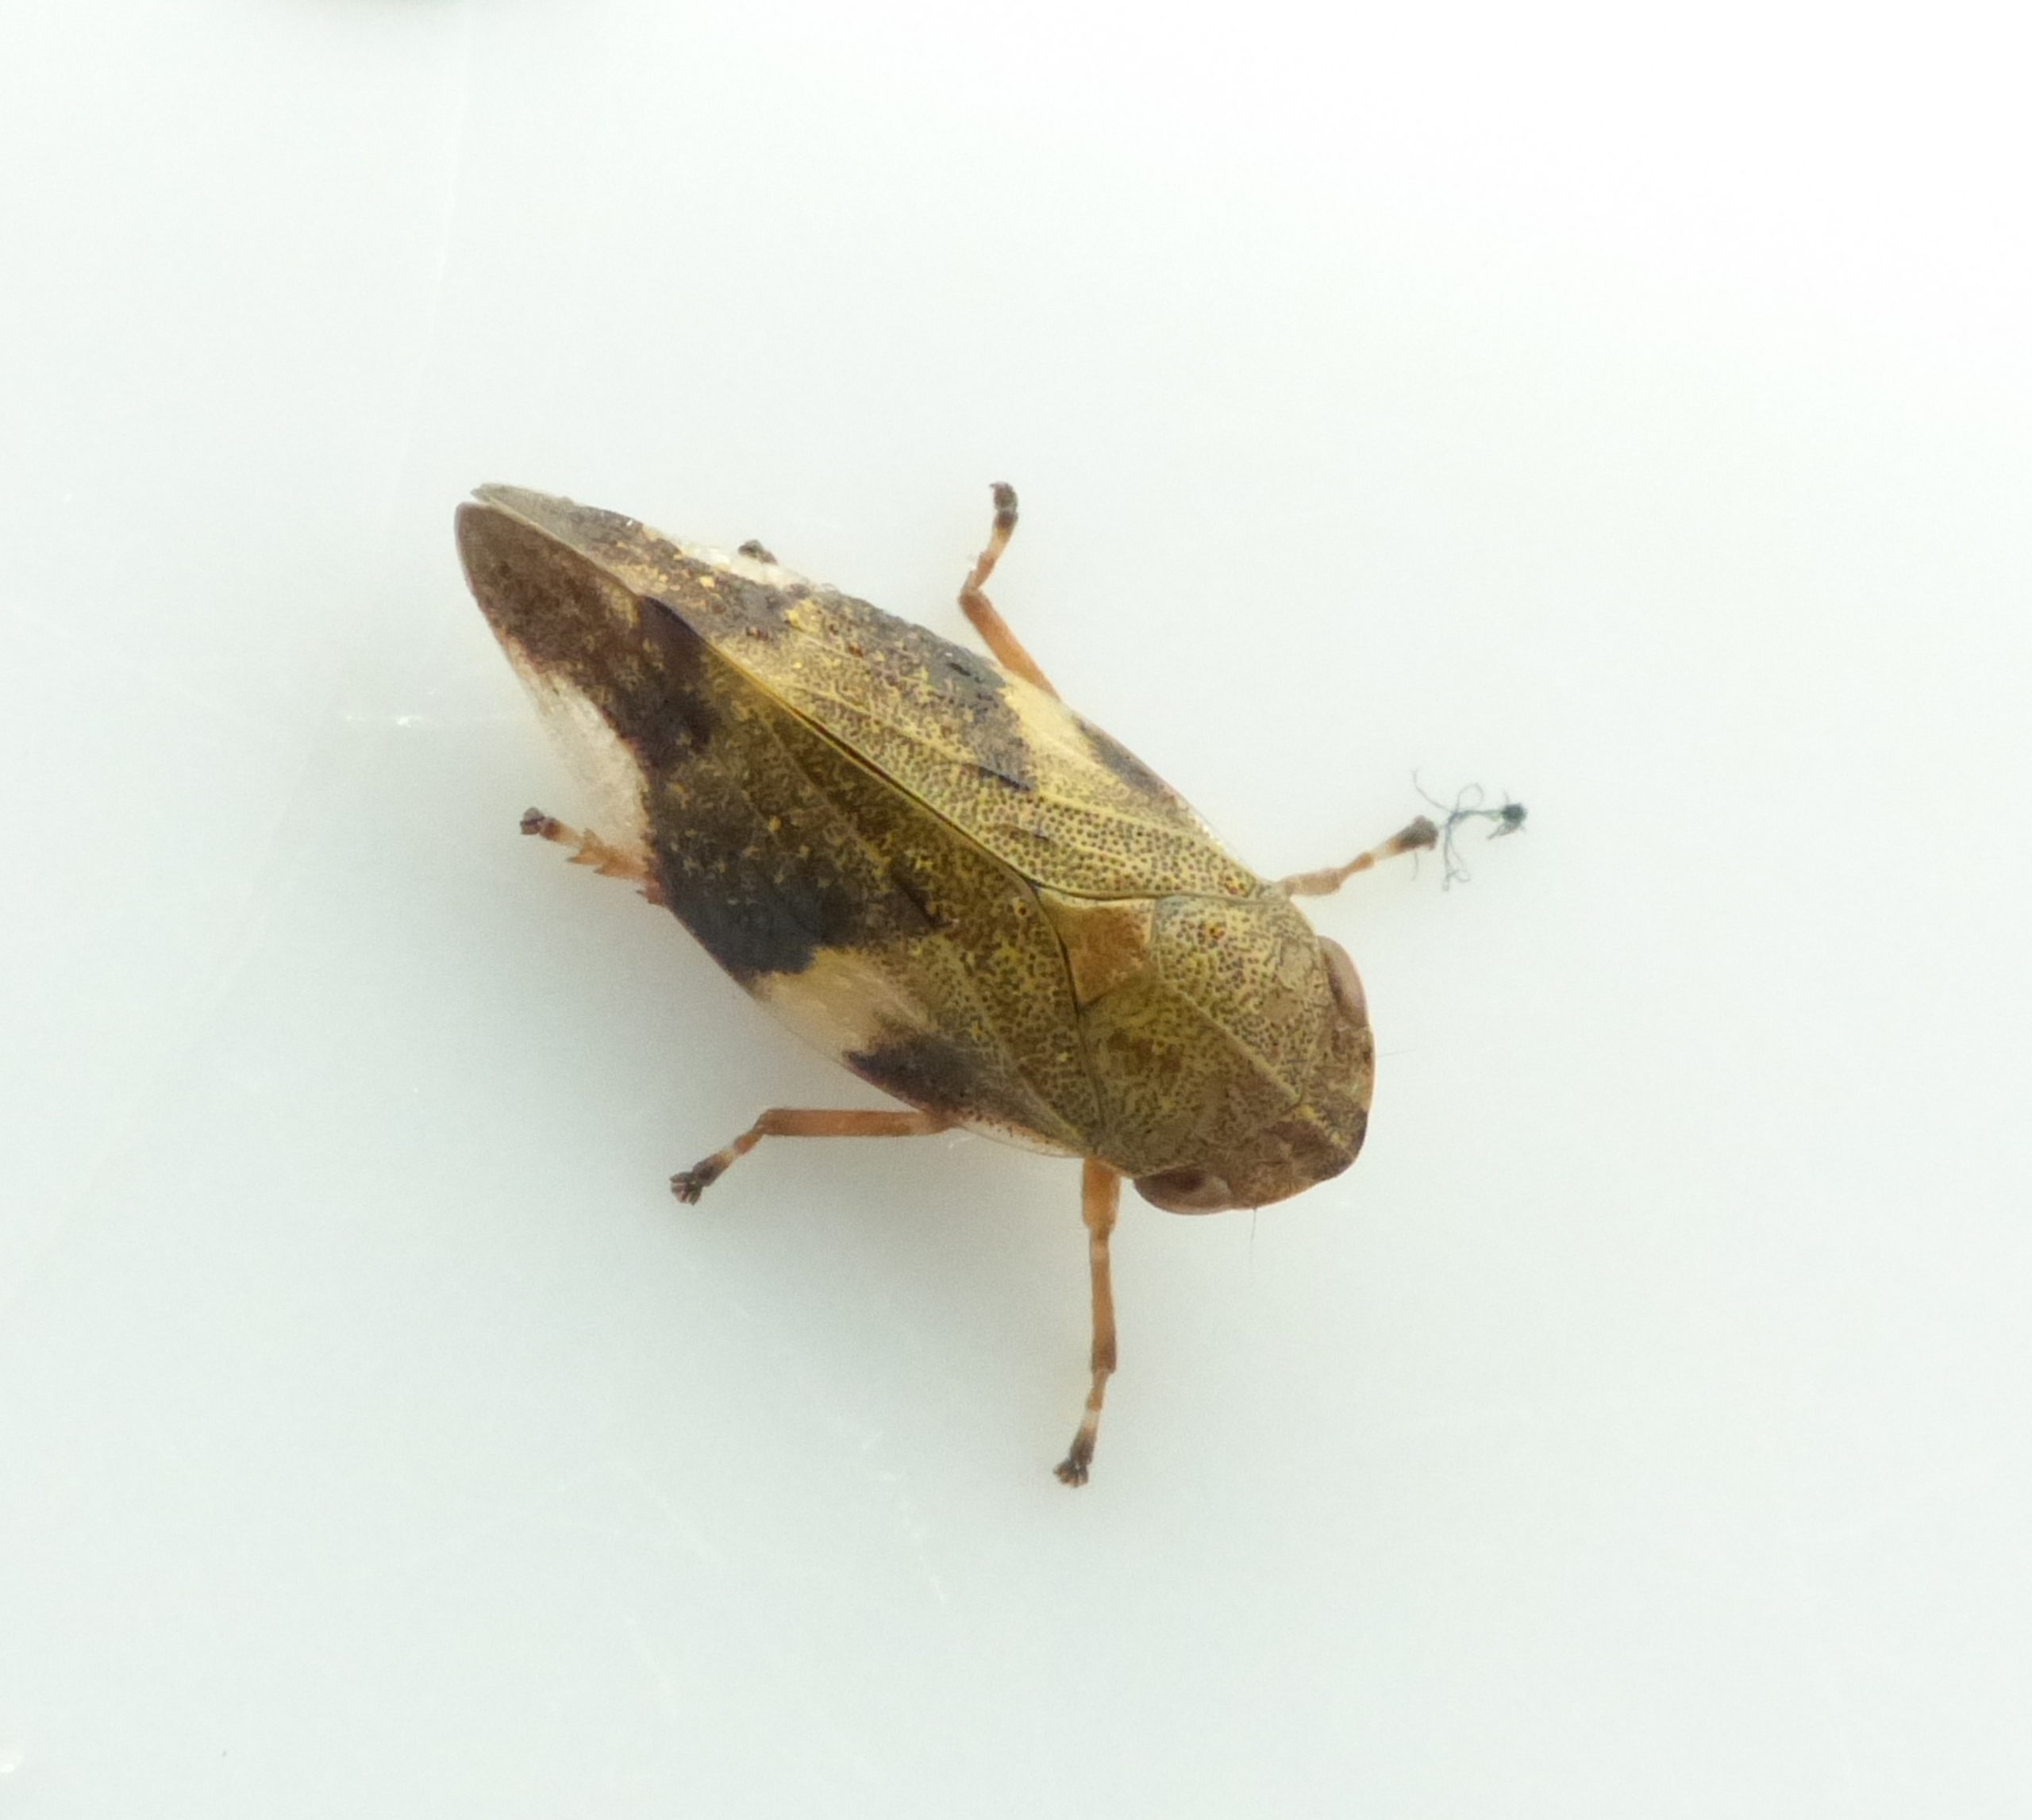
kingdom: Animalia
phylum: Arthropoda
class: Insecta
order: Hemiptera
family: Aphrophoridae
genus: Aphrophora
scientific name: Aphrophora alni
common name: Stor skumcikade
